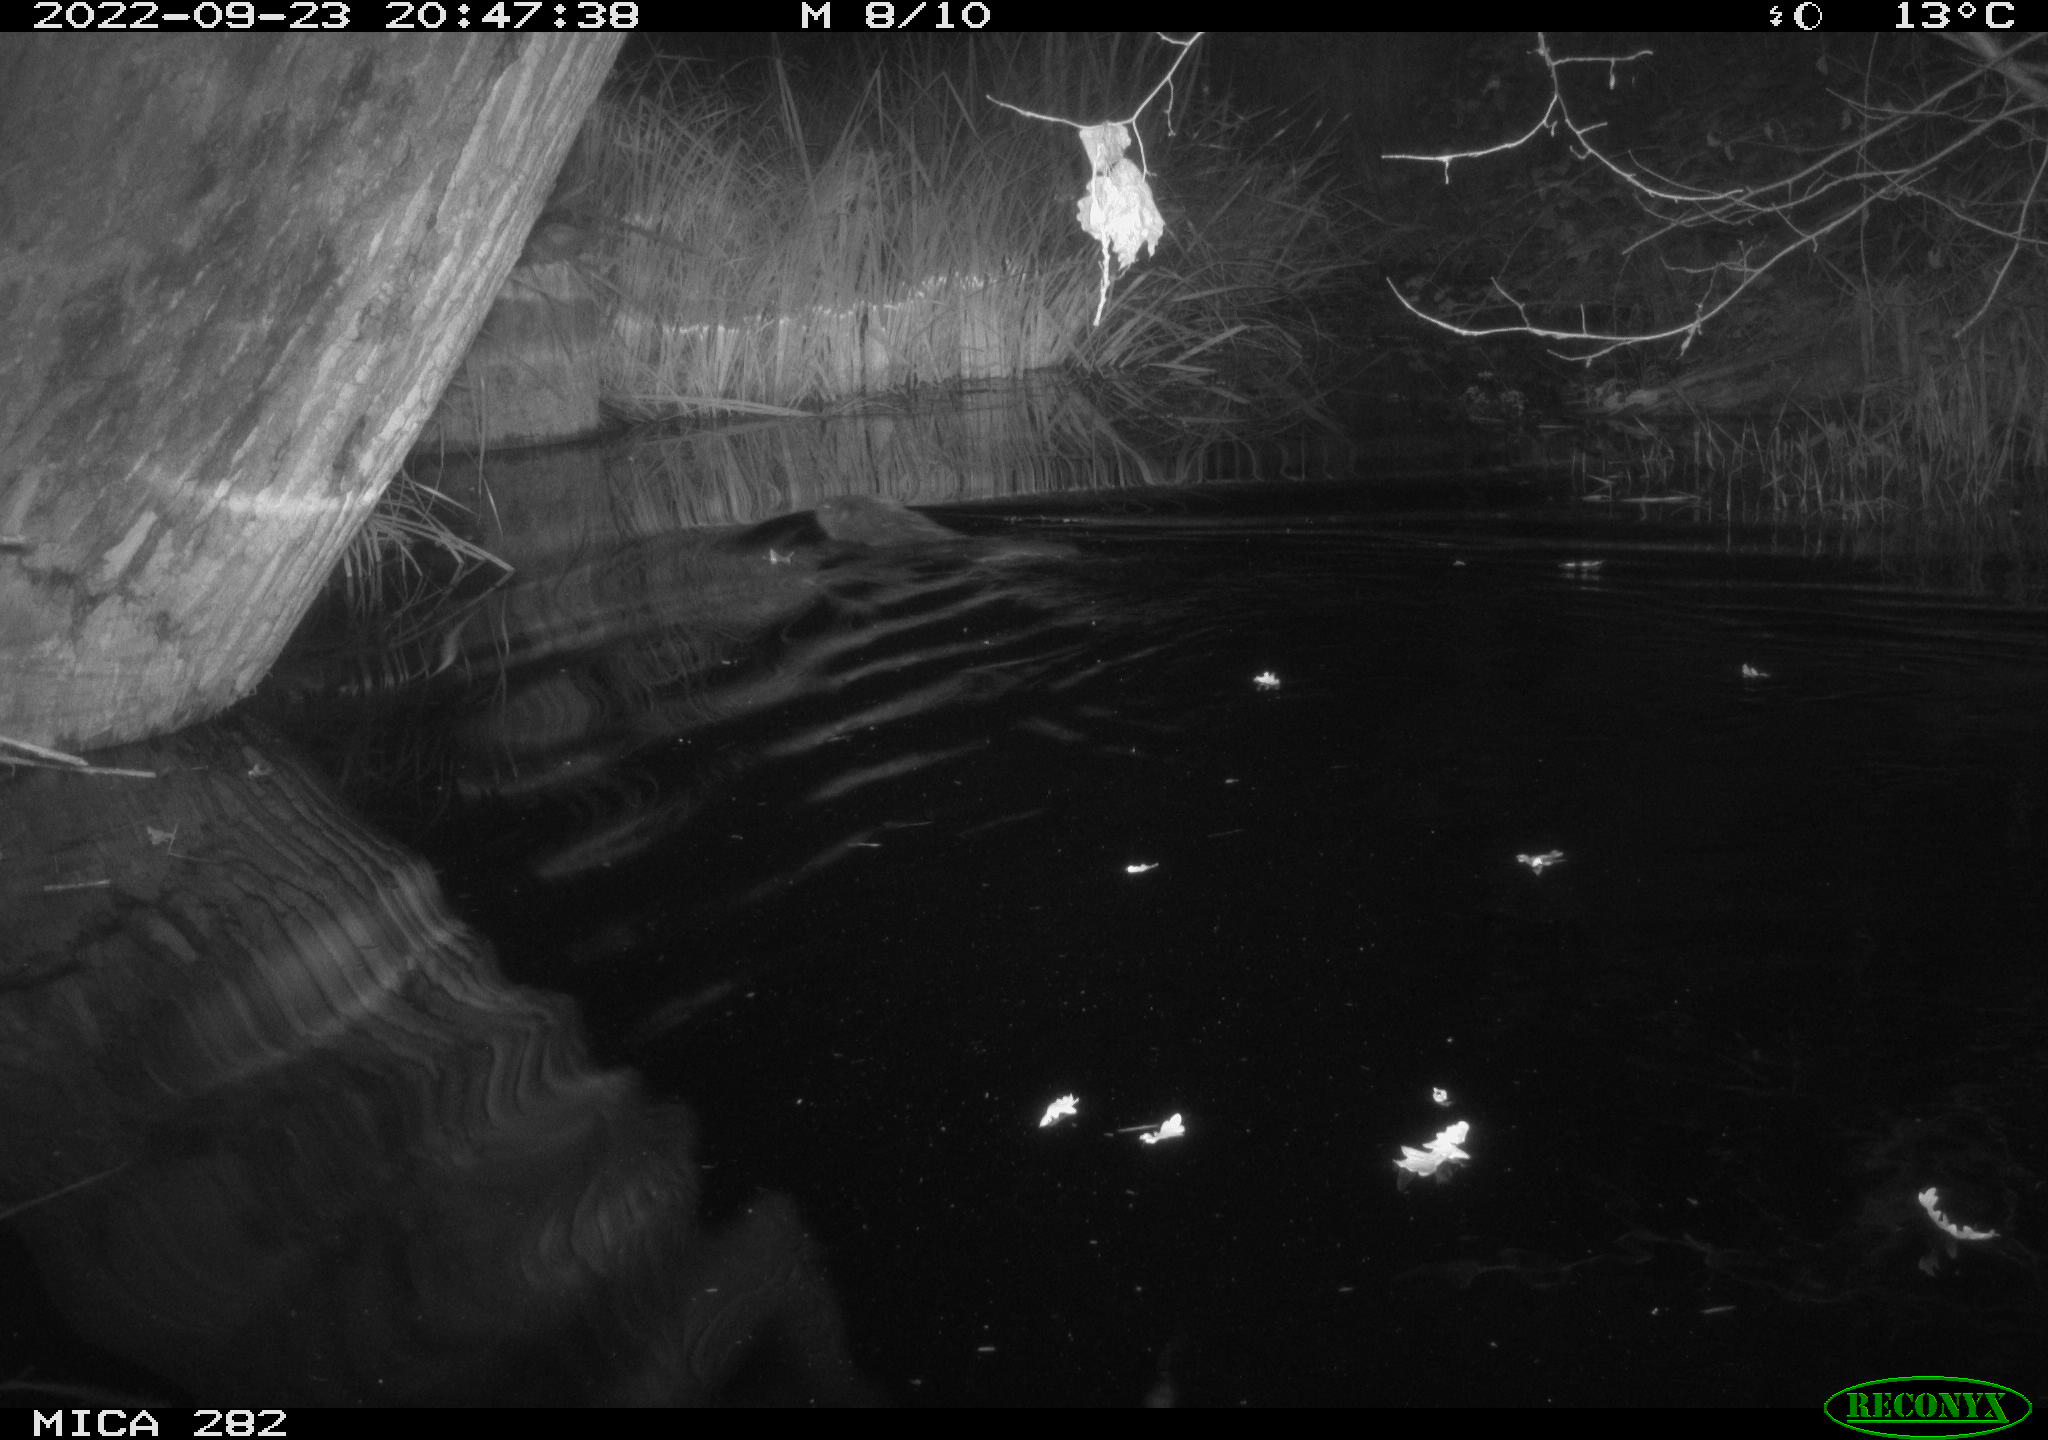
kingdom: Animalia
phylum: Chordata
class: Mammalia
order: Rodentia
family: Castoridae
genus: Castor
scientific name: Castor fiber
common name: Eurasian beaver
